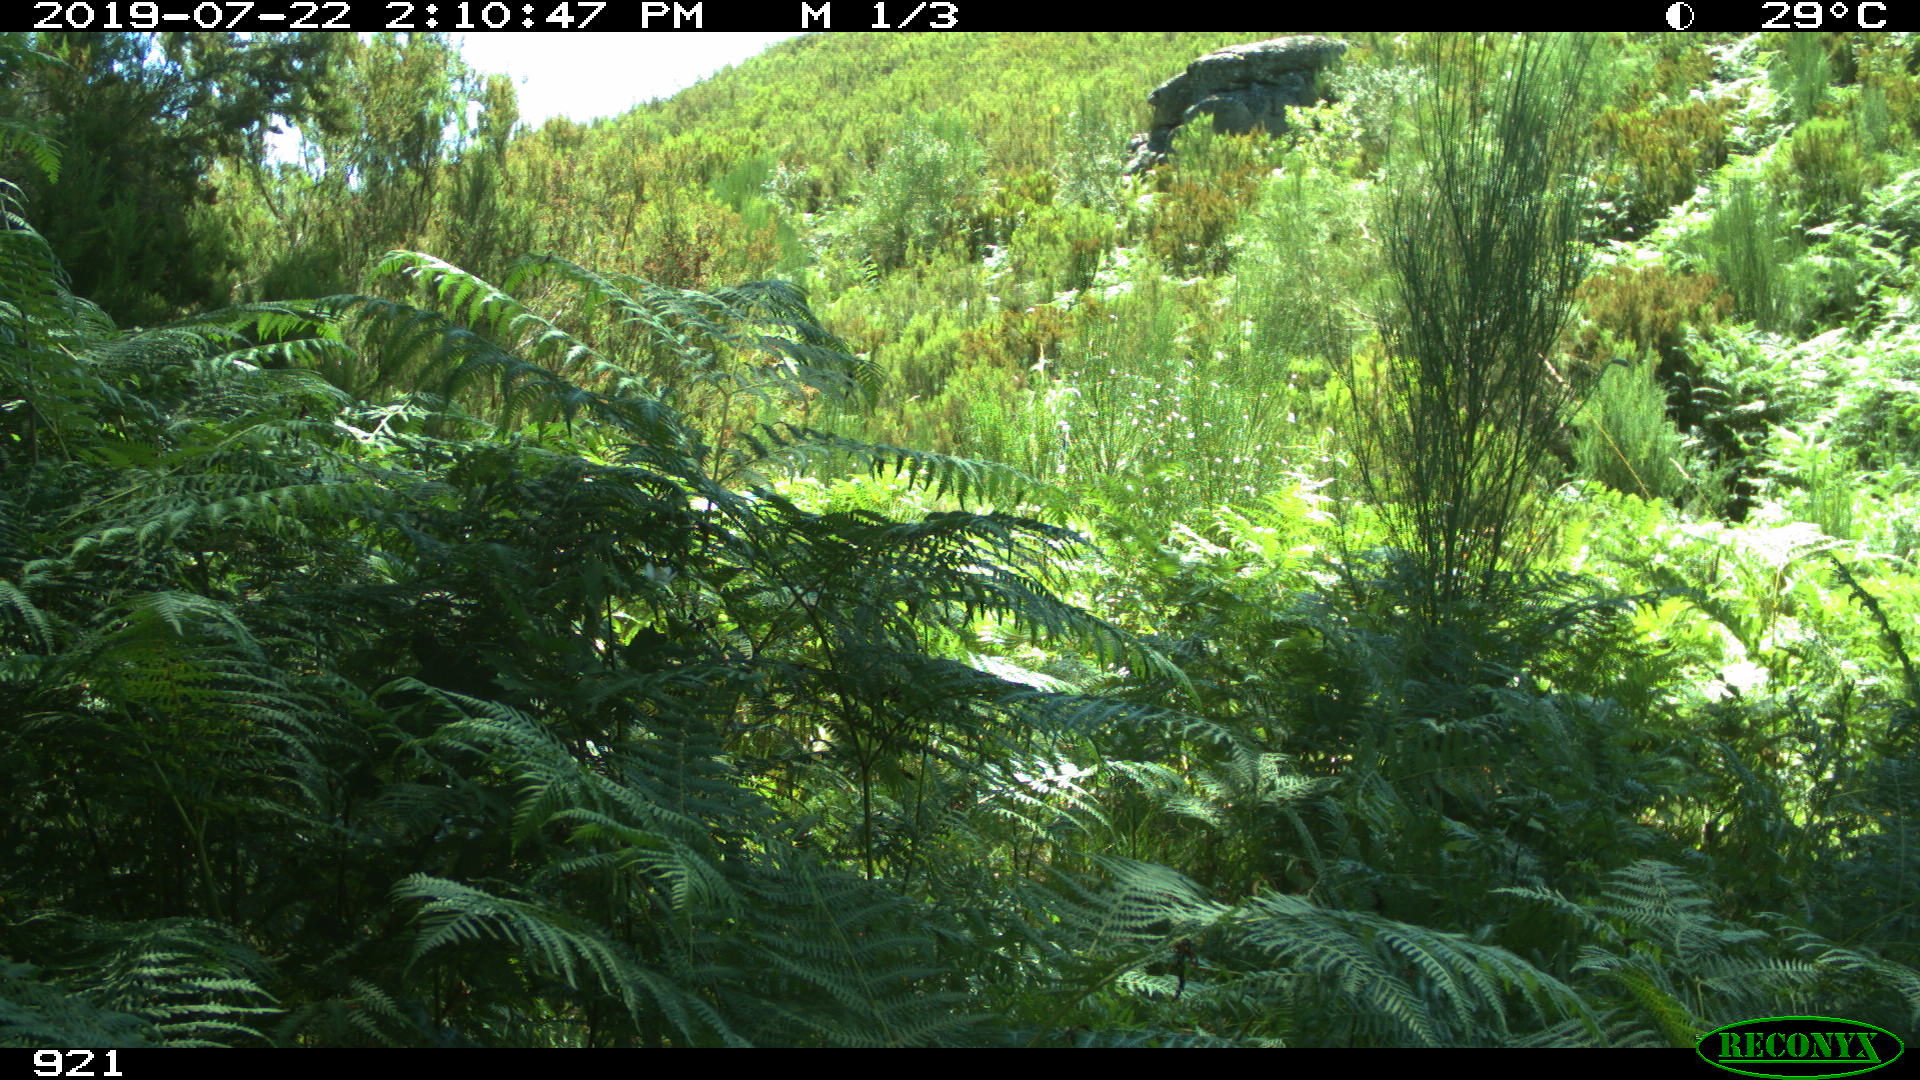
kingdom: Animalia
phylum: Chordata
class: Mammalia
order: Perissodactyla
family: Equidae
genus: Equus
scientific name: Equus caballus
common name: Horse
